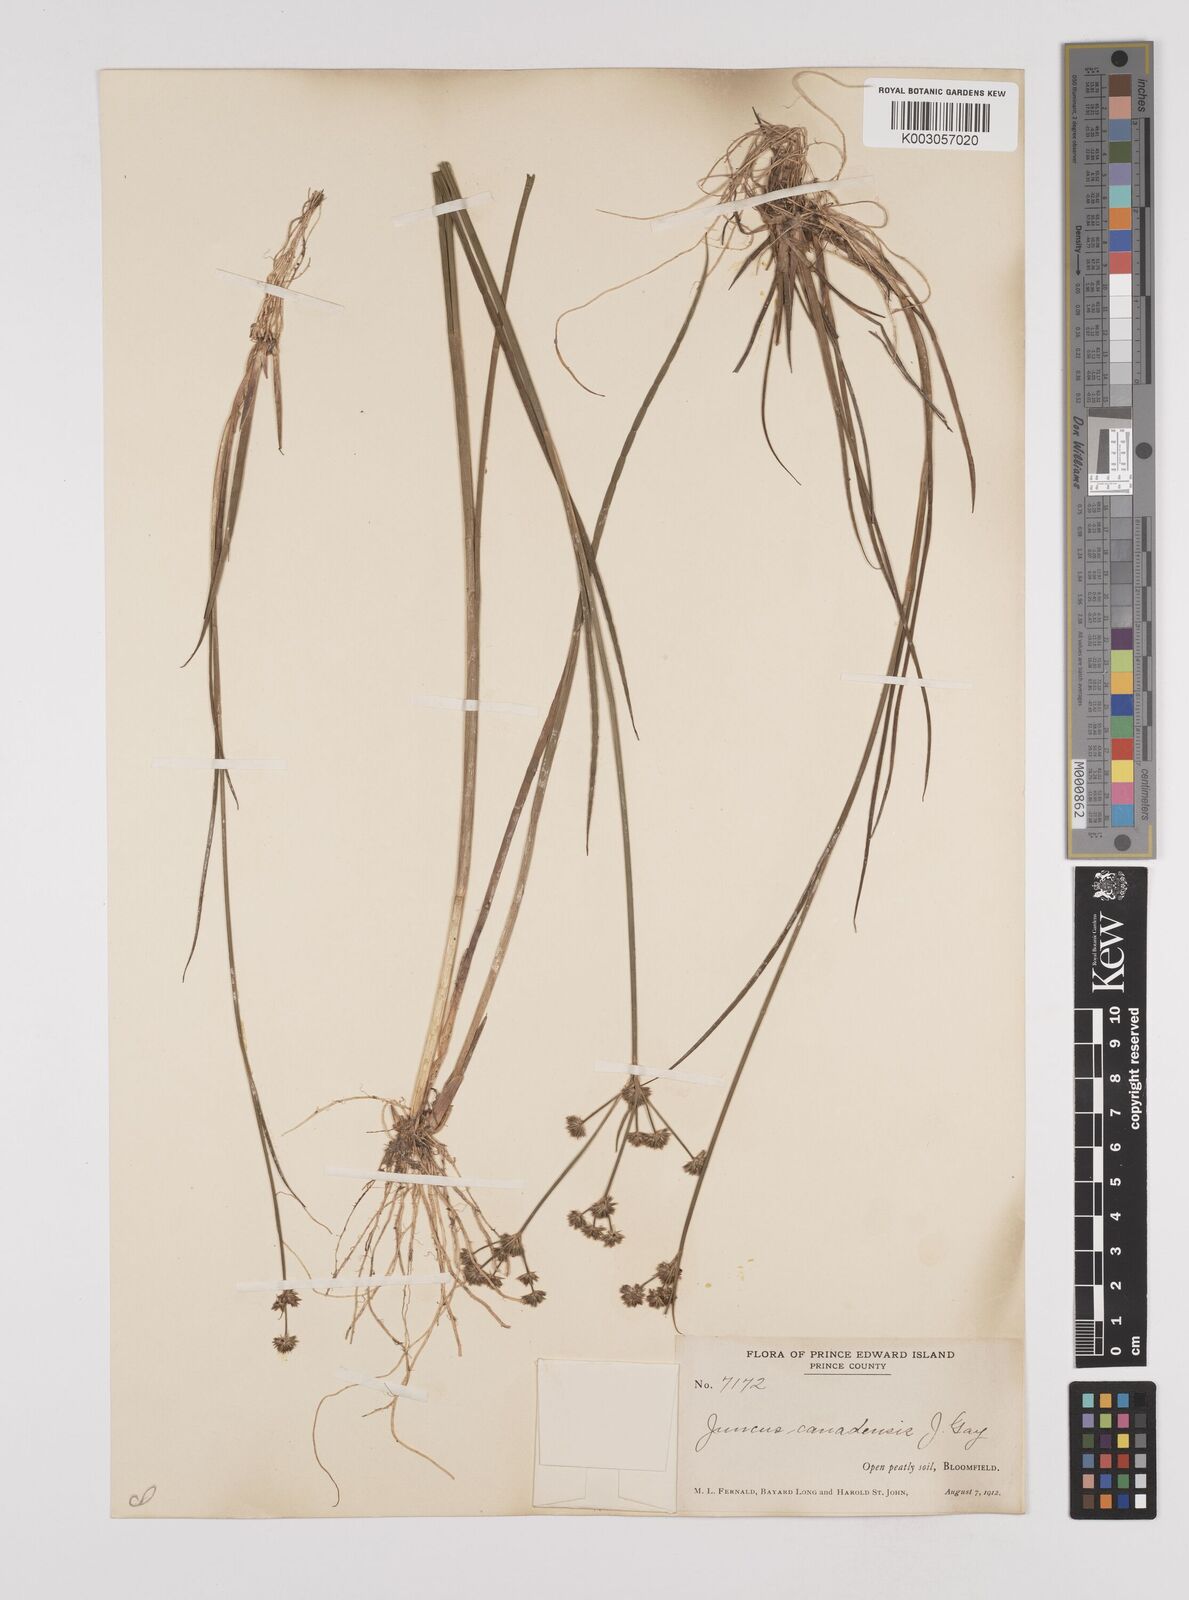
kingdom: Plantae
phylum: Tracheophyta
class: Liliopsida
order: Poales
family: Juncaceae
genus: Juncus
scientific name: Juncus canadensis
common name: Canada rush
